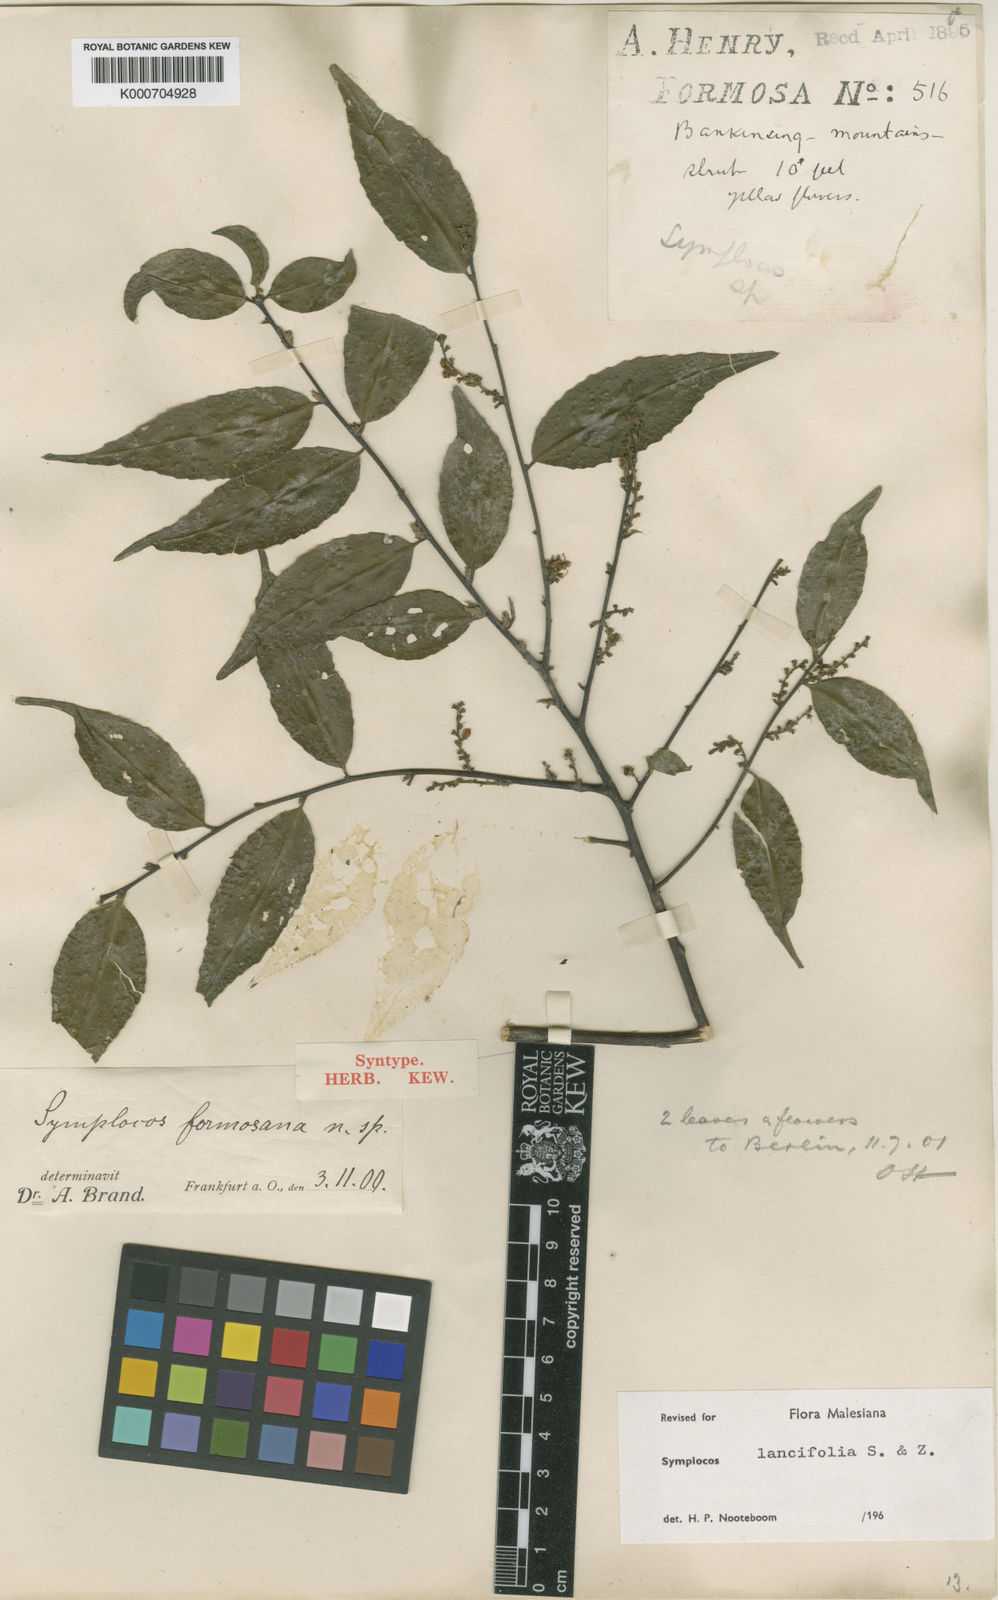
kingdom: Plantae
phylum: Tracheophyta
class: Magnoliopsida
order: Ericales
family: Symplocaceae
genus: Symplocos
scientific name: Symplocos lancifolia
